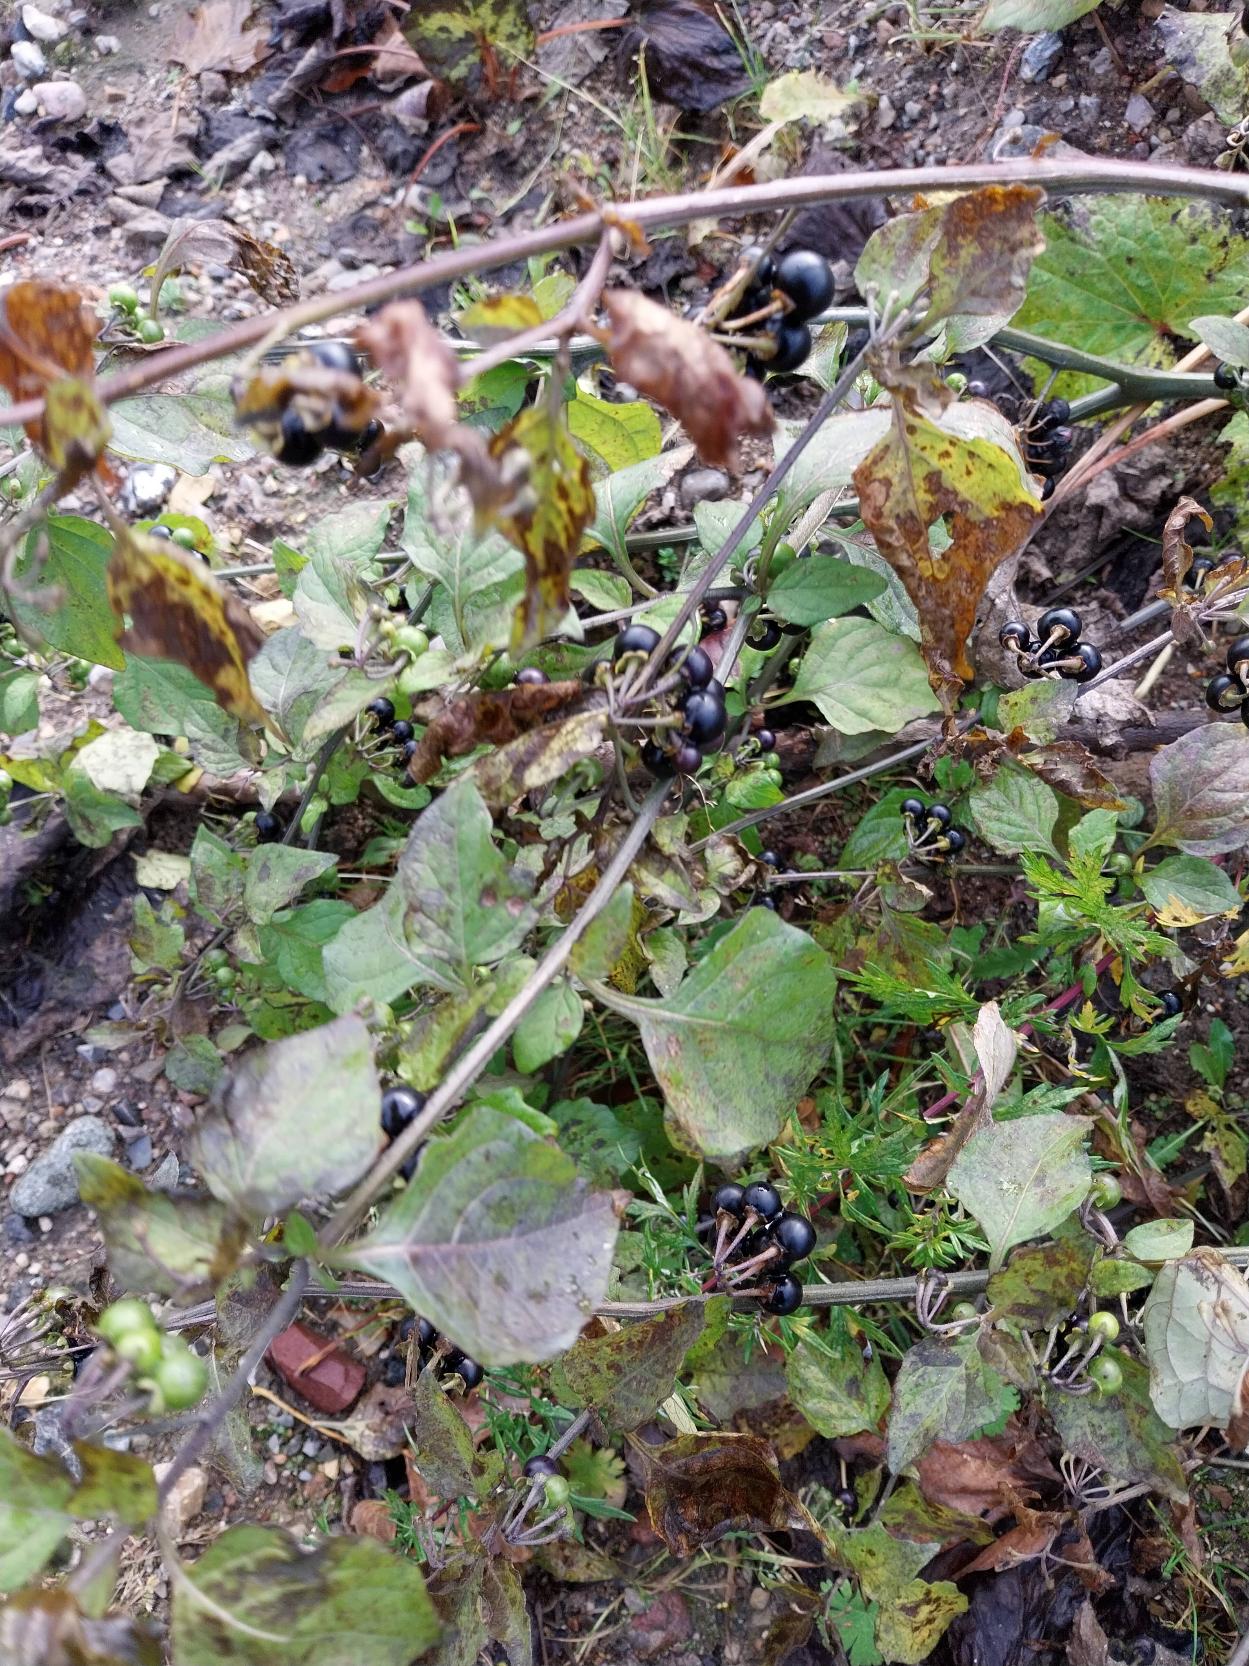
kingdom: Plantae
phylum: Tracheophyta
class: Magnoliopsida
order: Solanales
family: Solanaceae
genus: Solanum
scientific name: Solanum nigrum
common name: Sort natskygge (underart)
